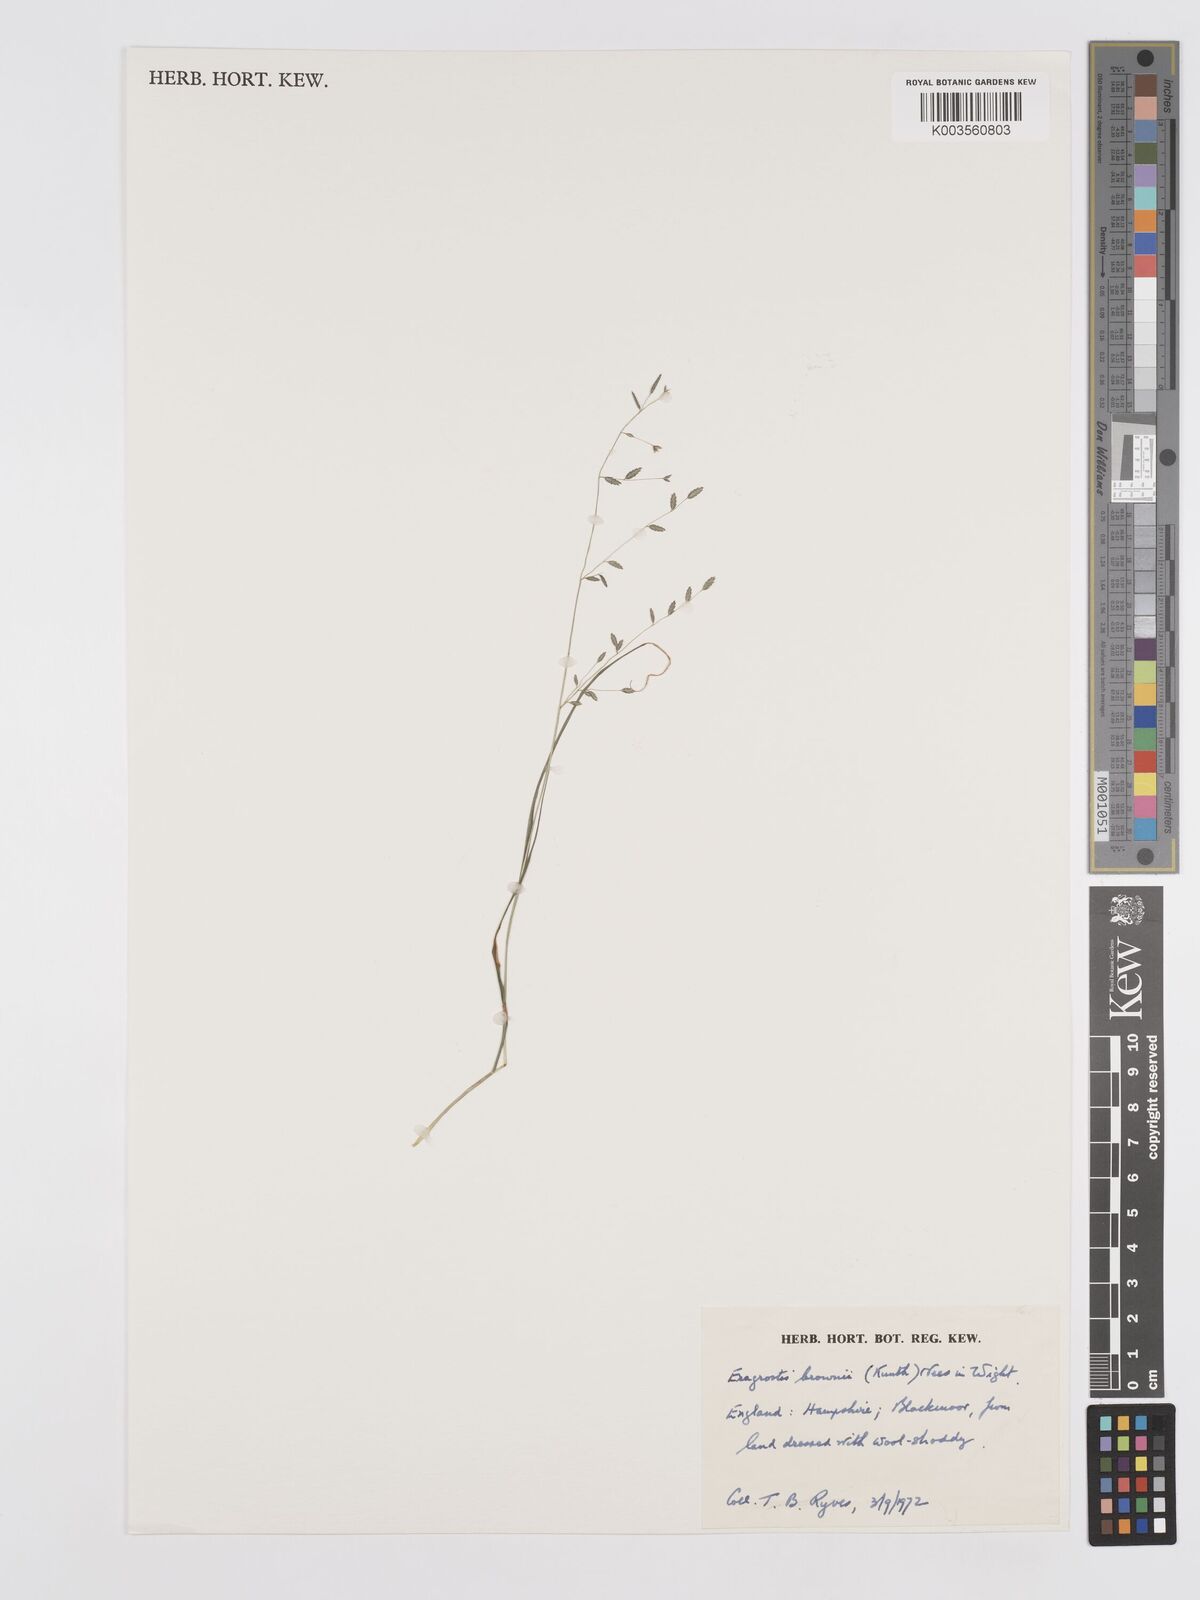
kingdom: Plantae
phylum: Tracheophyta
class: Liliopsida
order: Poales
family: Poaceae
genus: Eragrostis
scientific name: Eragrostis brownii
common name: Lovegrass
